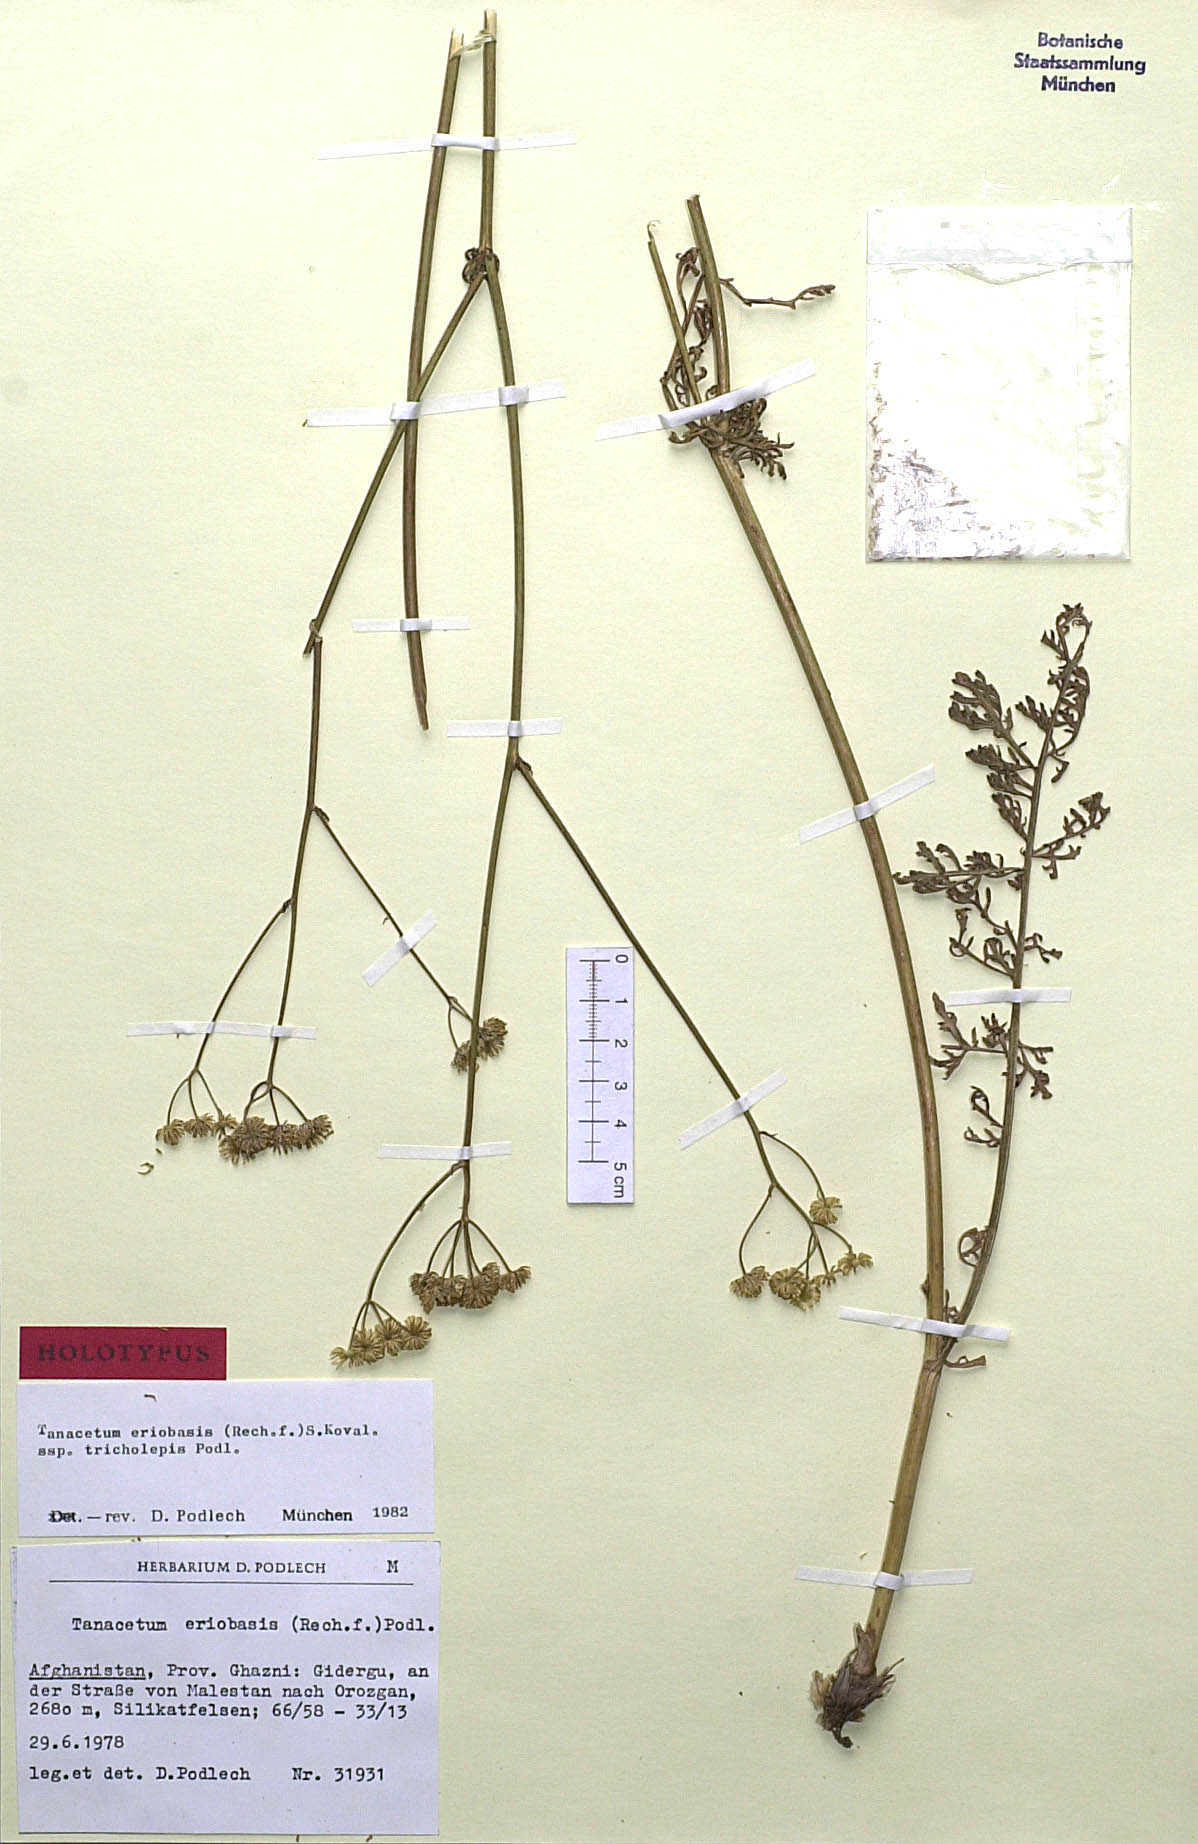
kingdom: Plantae
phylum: Tracheophyta
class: Magnoliopsida
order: Asterales
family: Asteraceae
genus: Tanacetopsis
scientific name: Tanacetopsis eriobasis
